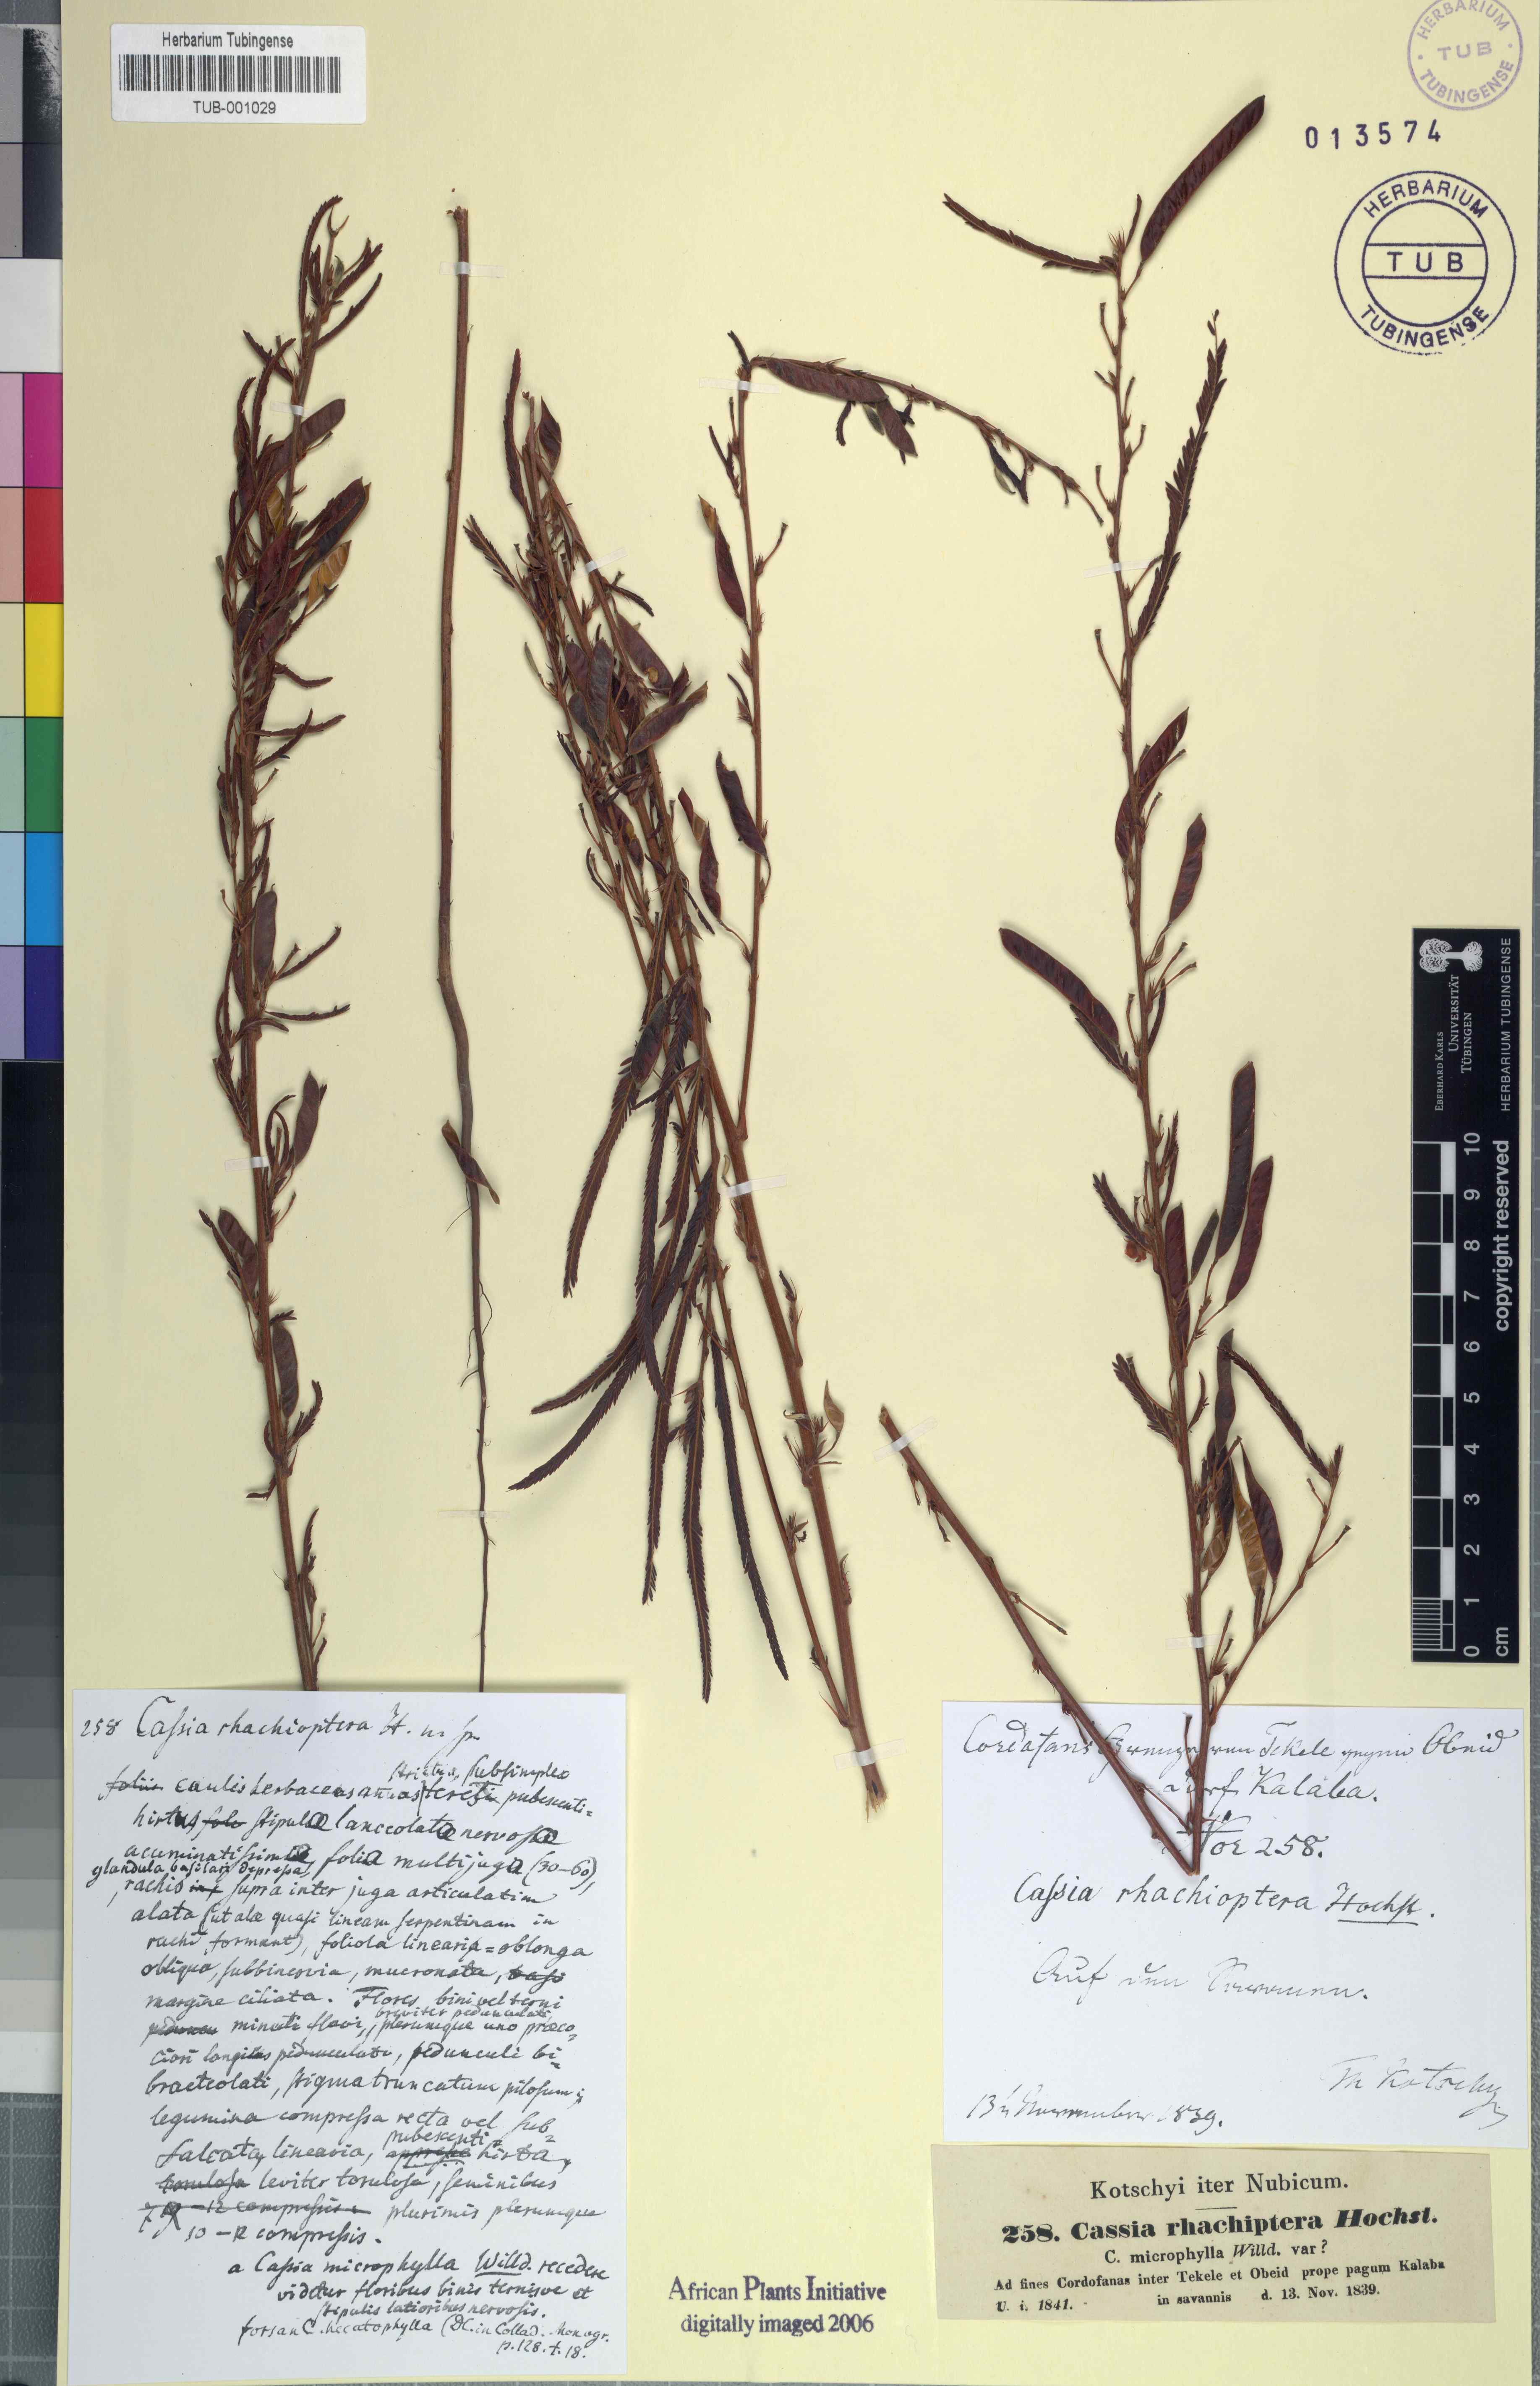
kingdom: Plantae
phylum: Tracheophyta
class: Magnoliopsida
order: Fabales
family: Fabaceae
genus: Cassia
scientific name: Cassia
